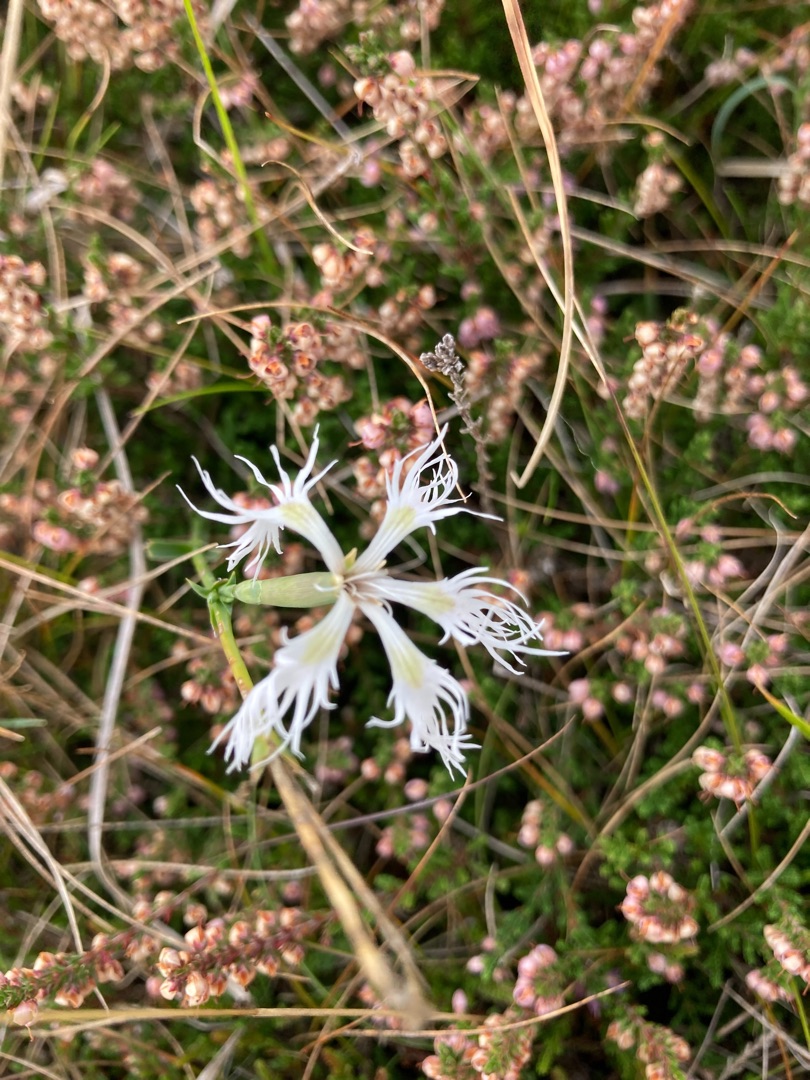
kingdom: Plantae
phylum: Tracheophyta
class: Magnoliopsida
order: Caryophyllales
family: Caryophyllaceae
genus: Dianthus
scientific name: Dianthus superbus
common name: Strand-nellike
